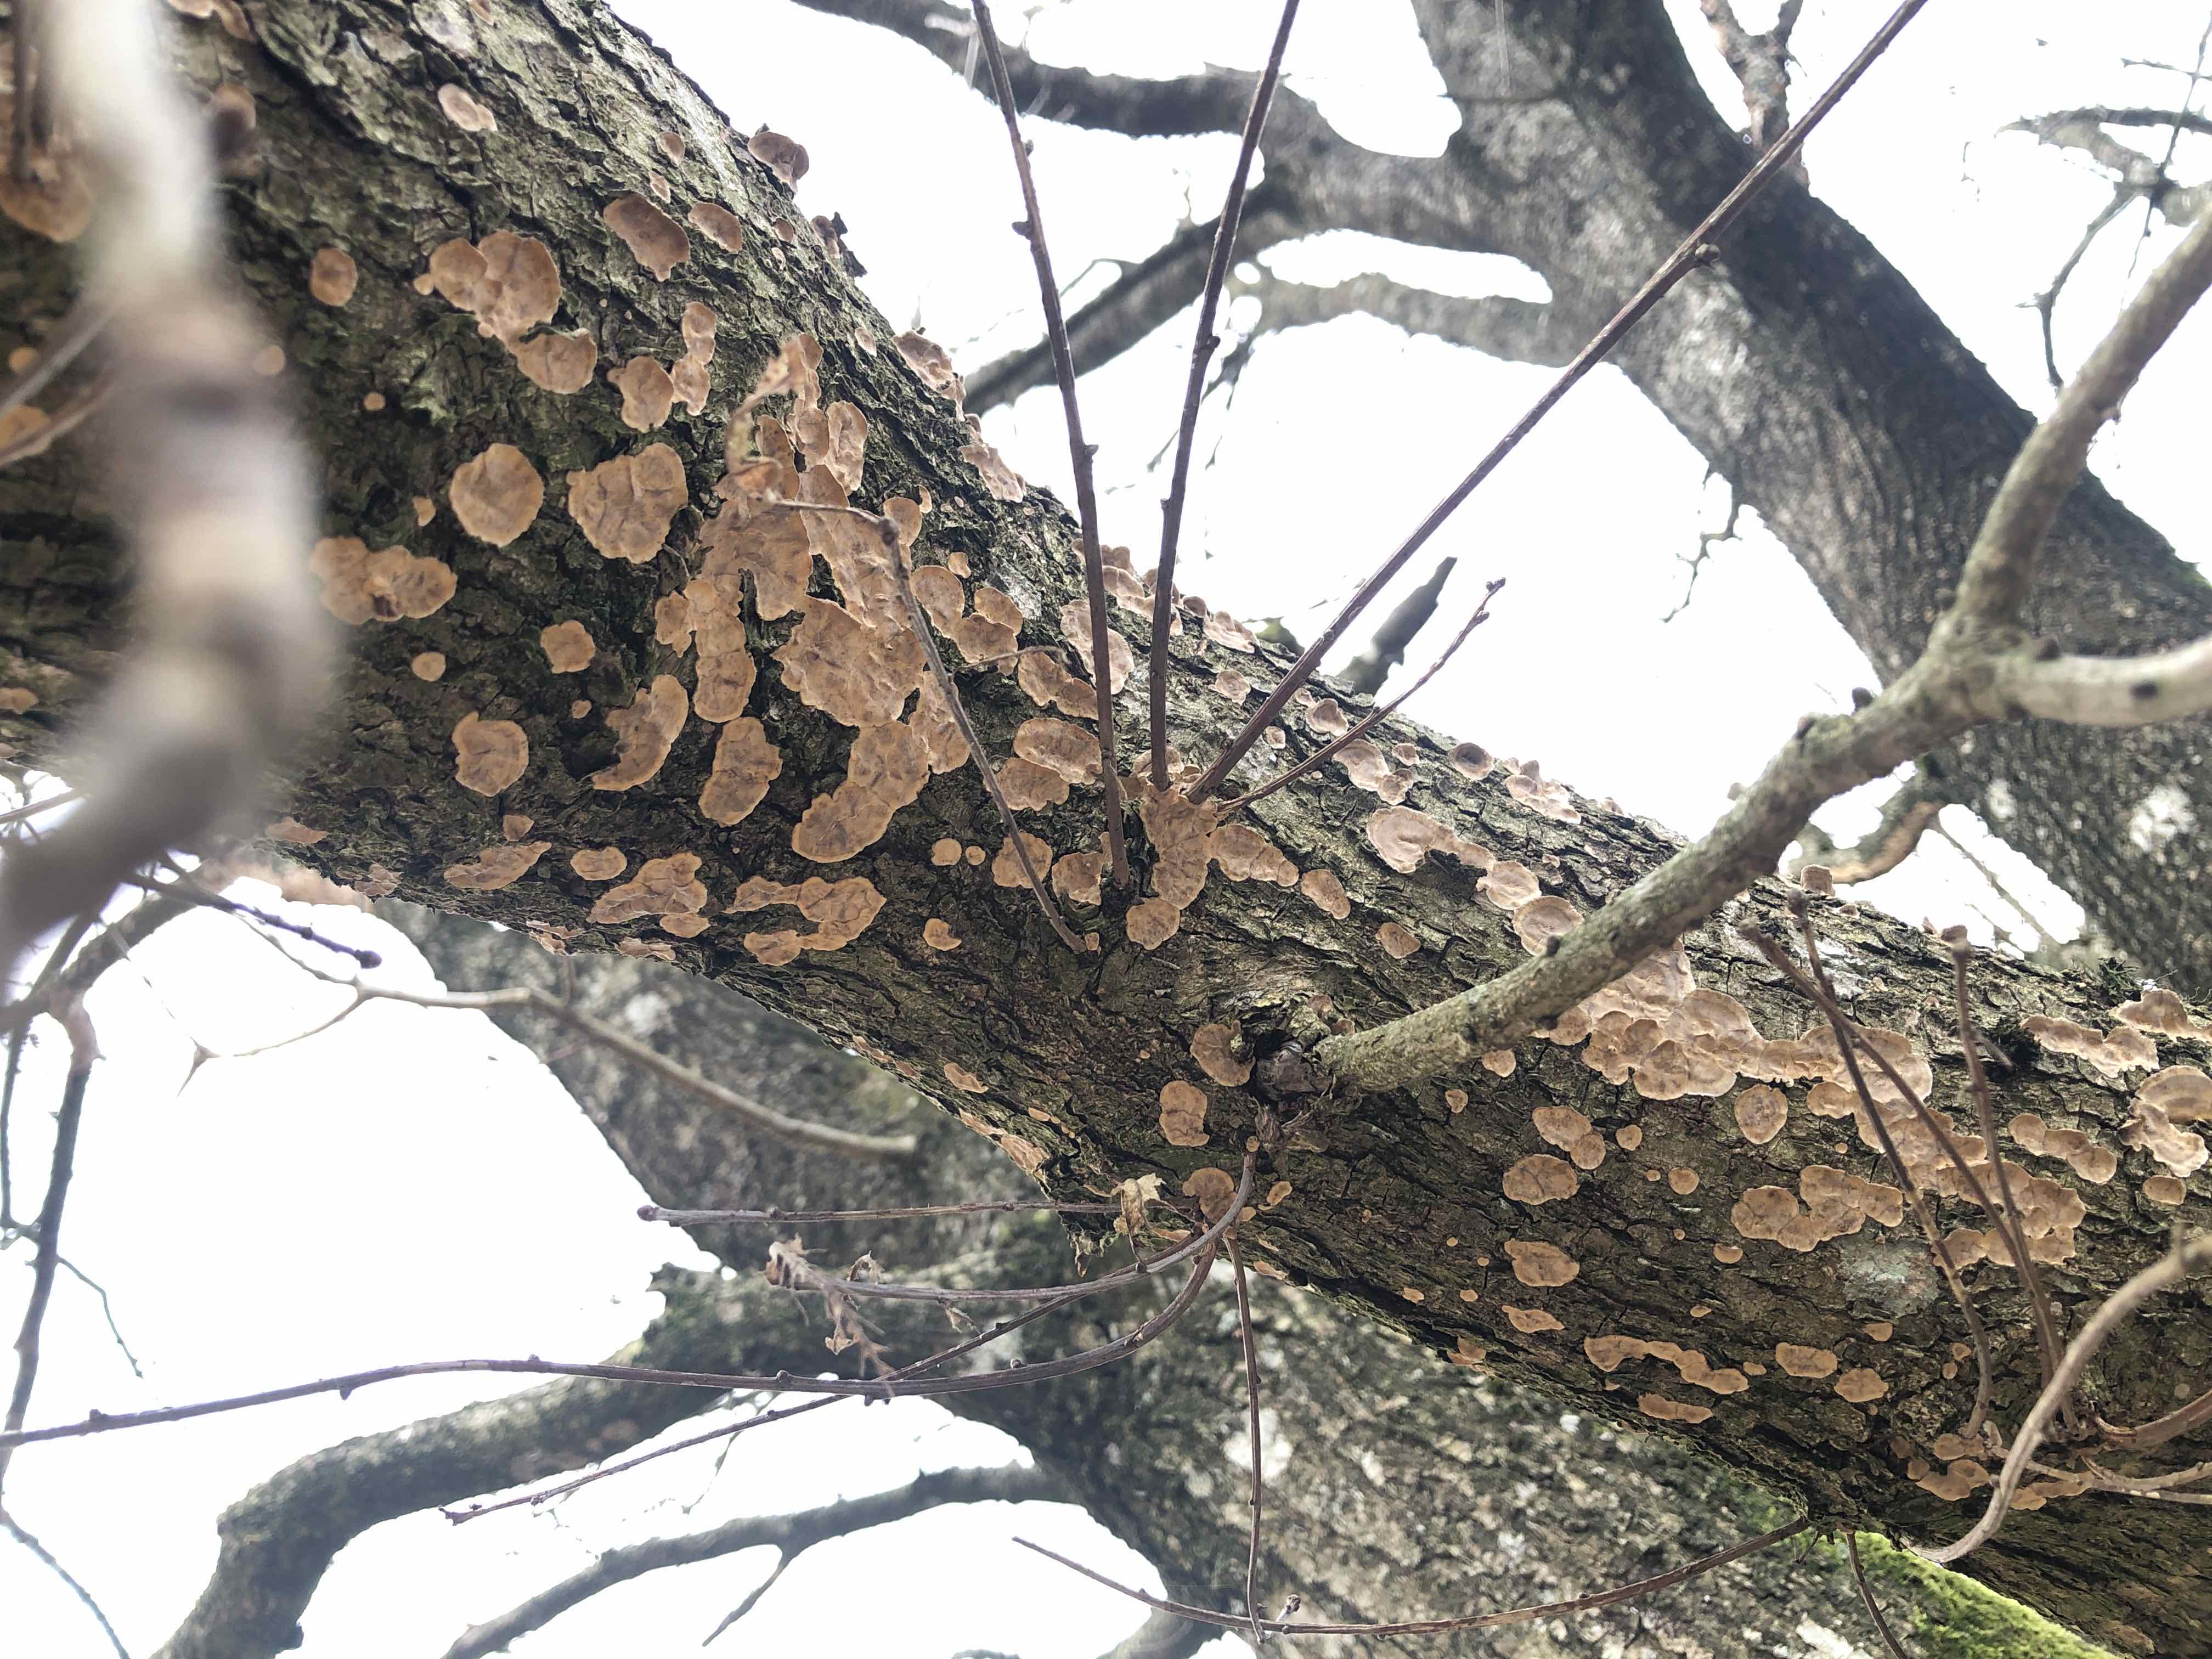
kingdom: Fungi
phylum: Basidiomycota
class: Agaricomycetes
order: Russulales
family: Stereaceae
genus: Stereum
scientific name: Stereum rugosum
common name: rynket lædersvamp
